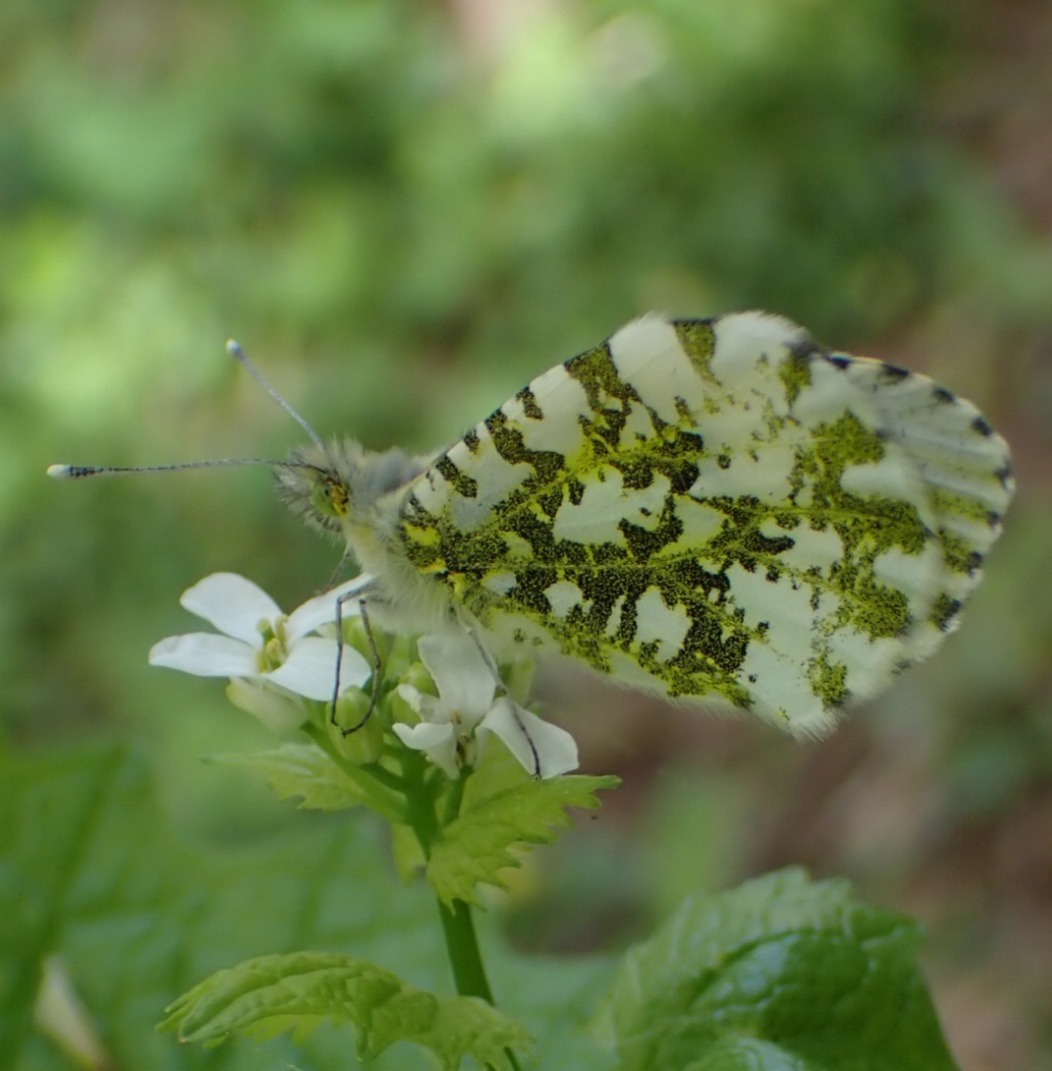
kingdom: Animalia
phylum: Arthropoda
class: Insecta
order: Lepidoptera
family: Pieridae
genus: Anthocharis
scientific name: Anthocharis cardamines
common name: Aurora
